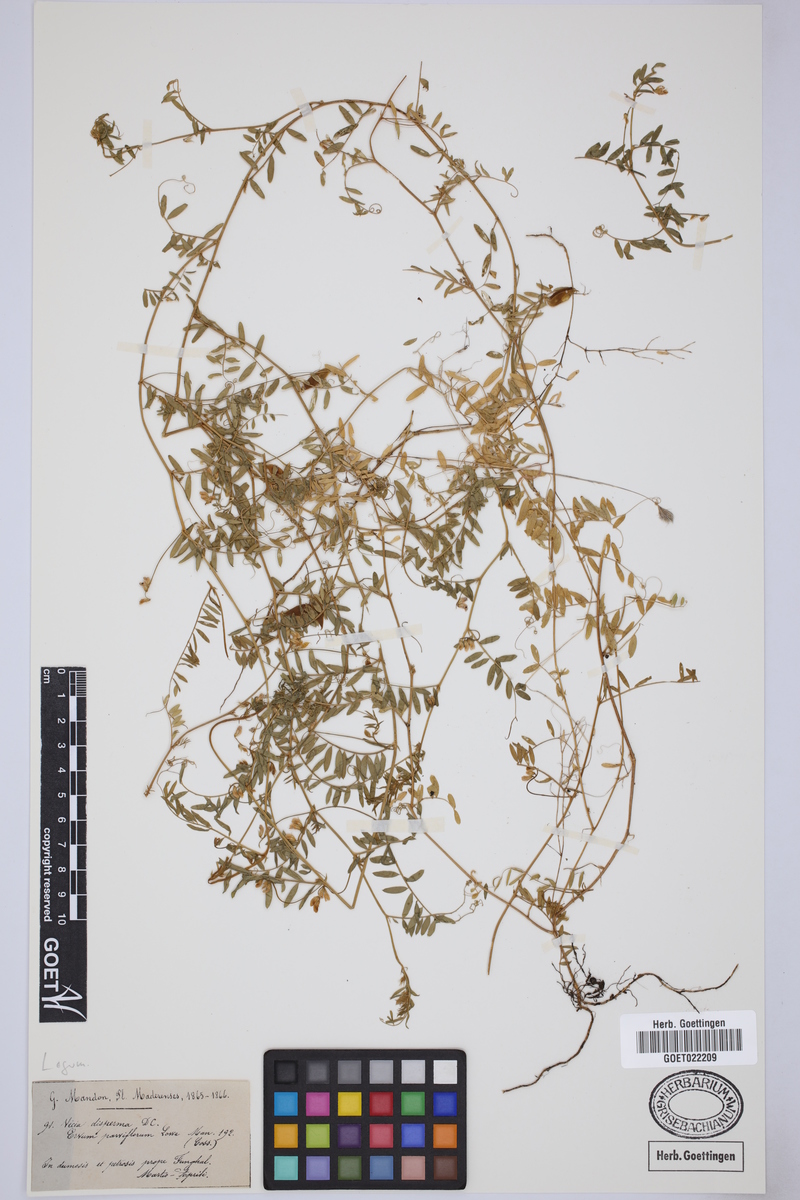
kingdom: Plantae
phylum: Tracheophyta
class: Magnoliopsida
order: Fabales
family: Fabaceae
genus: Vicia
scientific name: Vicia disperma
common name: European vetch
